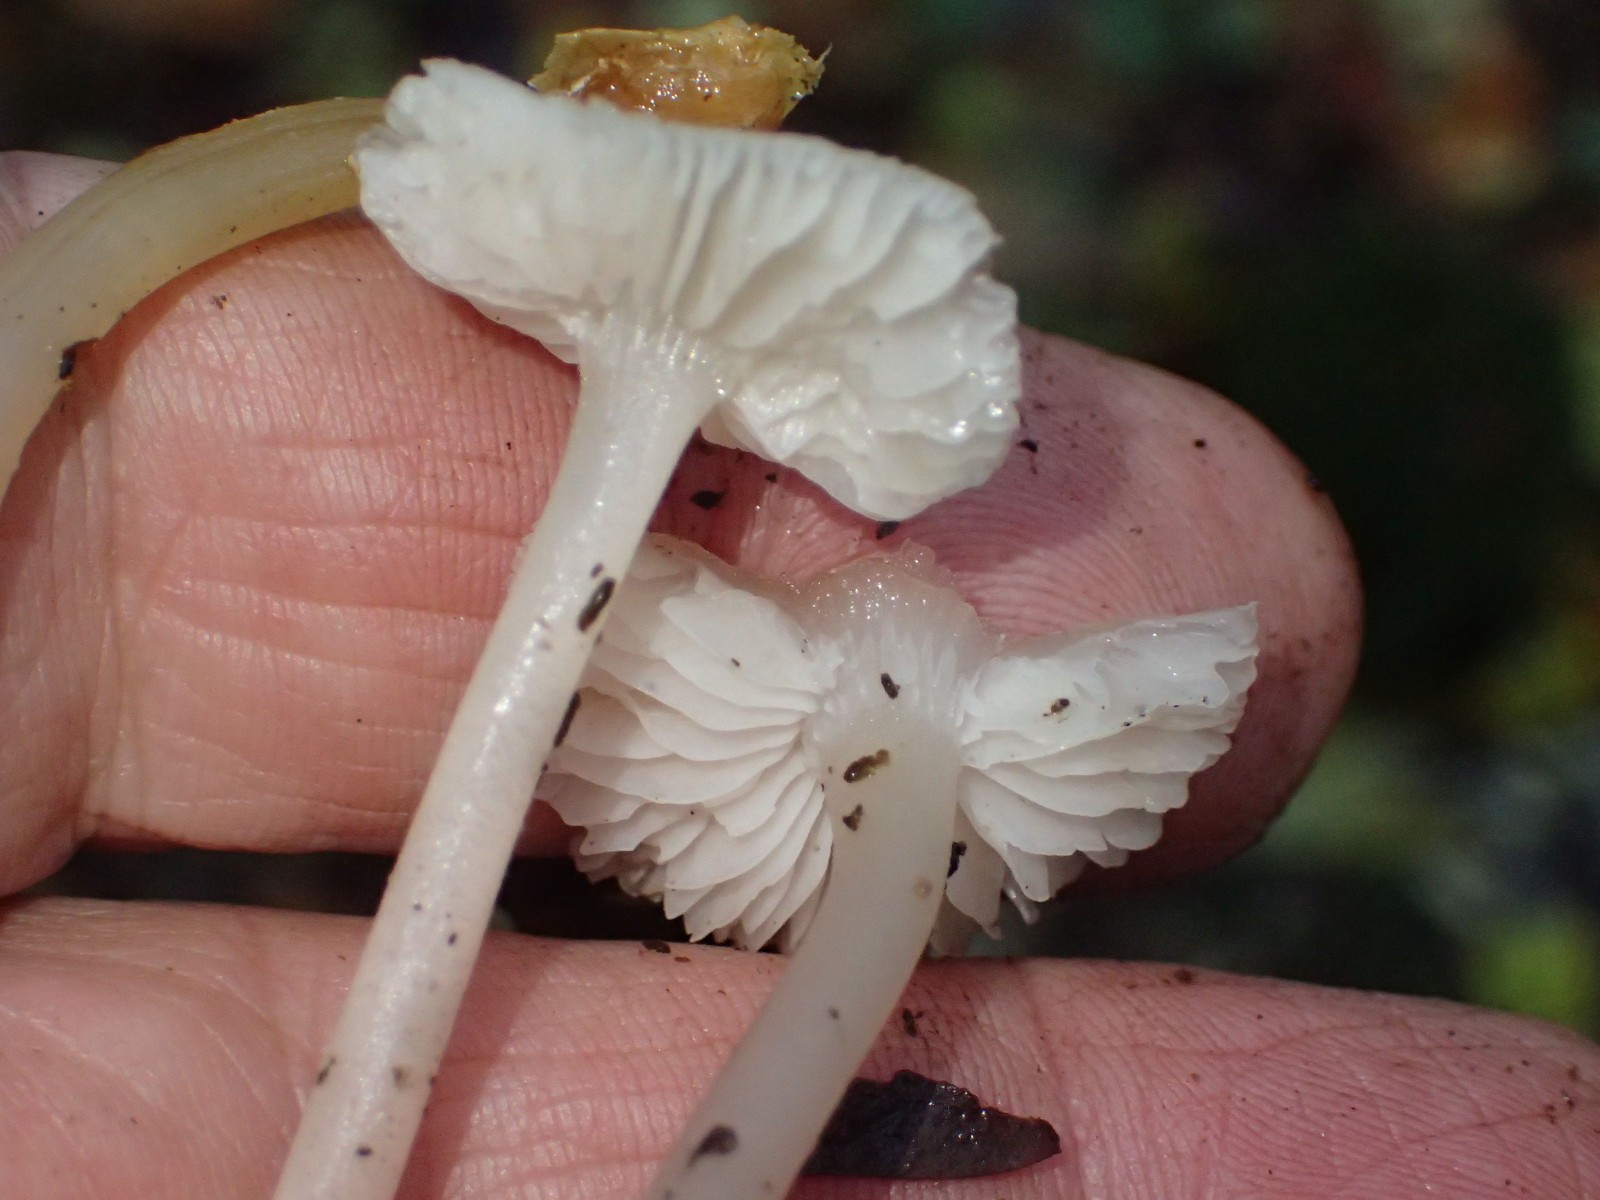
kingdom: Fungi
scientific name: Fungi
